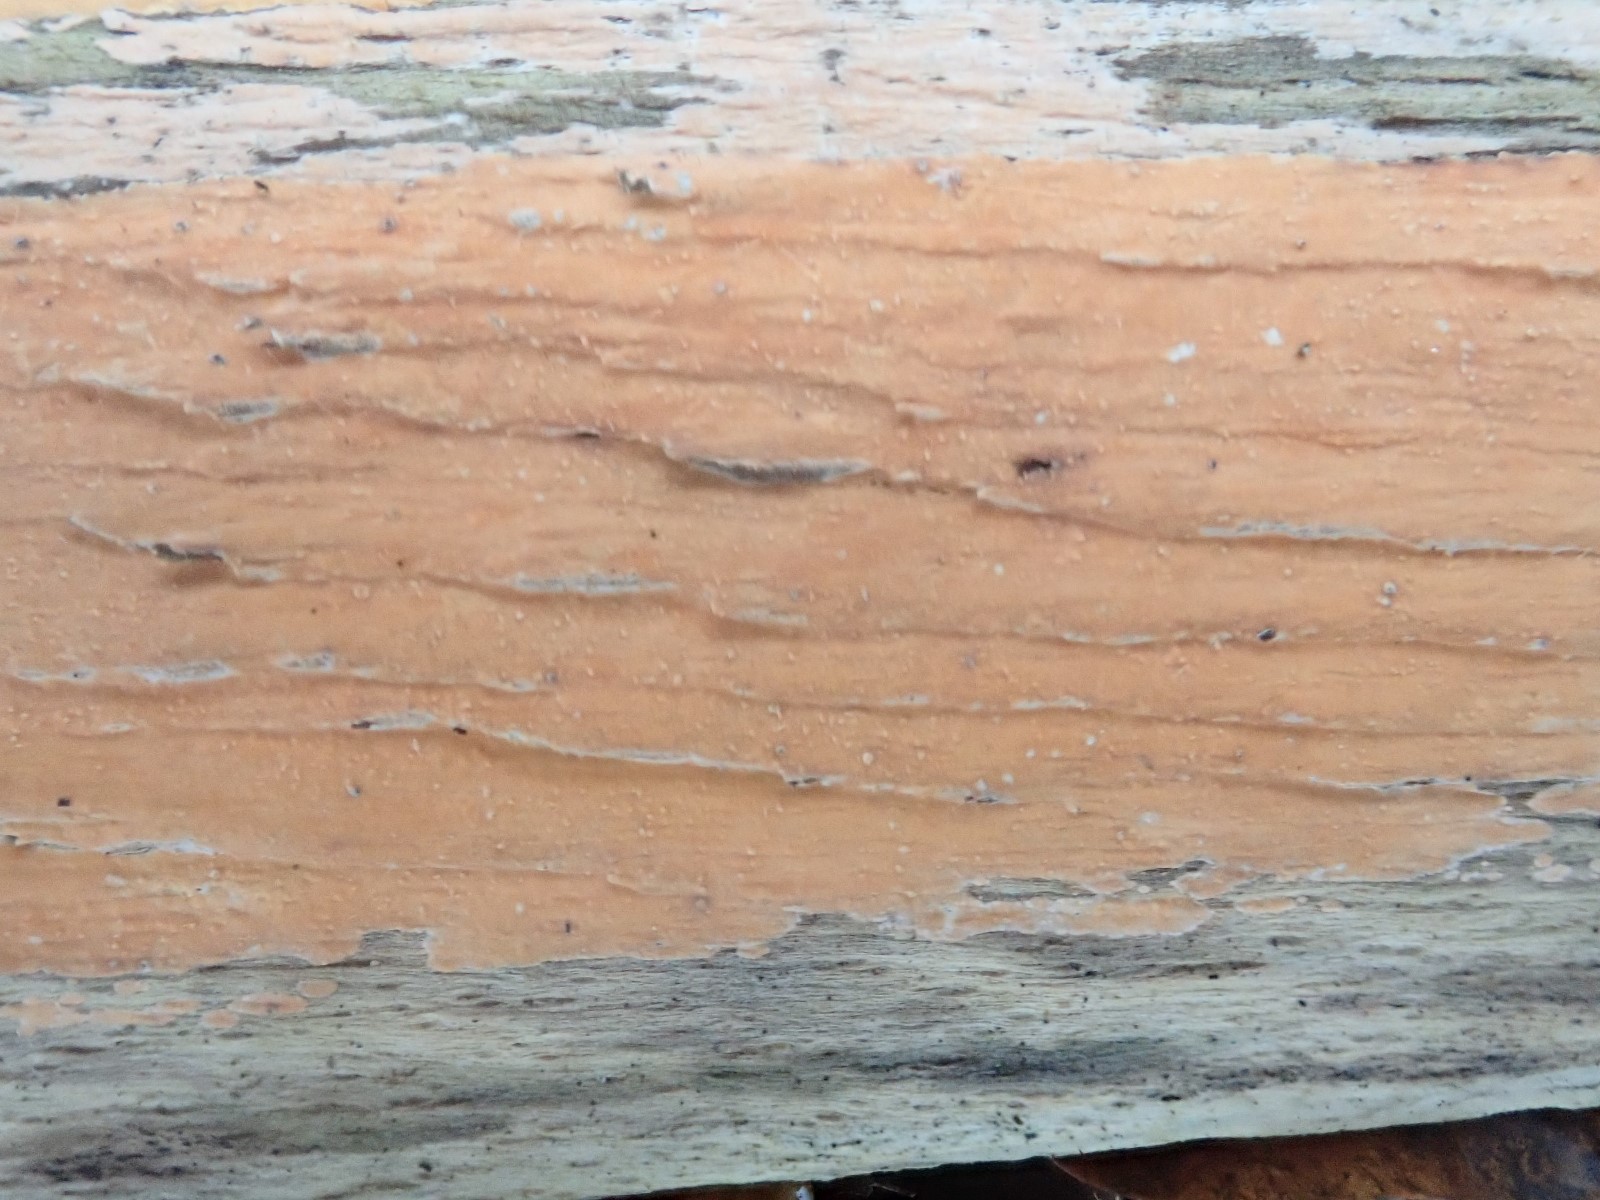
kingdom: Fungi
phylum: Basidiomycota
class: Agaricomycetes
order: Russulales
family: Peniophoraceae
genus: Peniophora
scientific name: Peniophora incarnata
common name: laksefarvet voksskind
